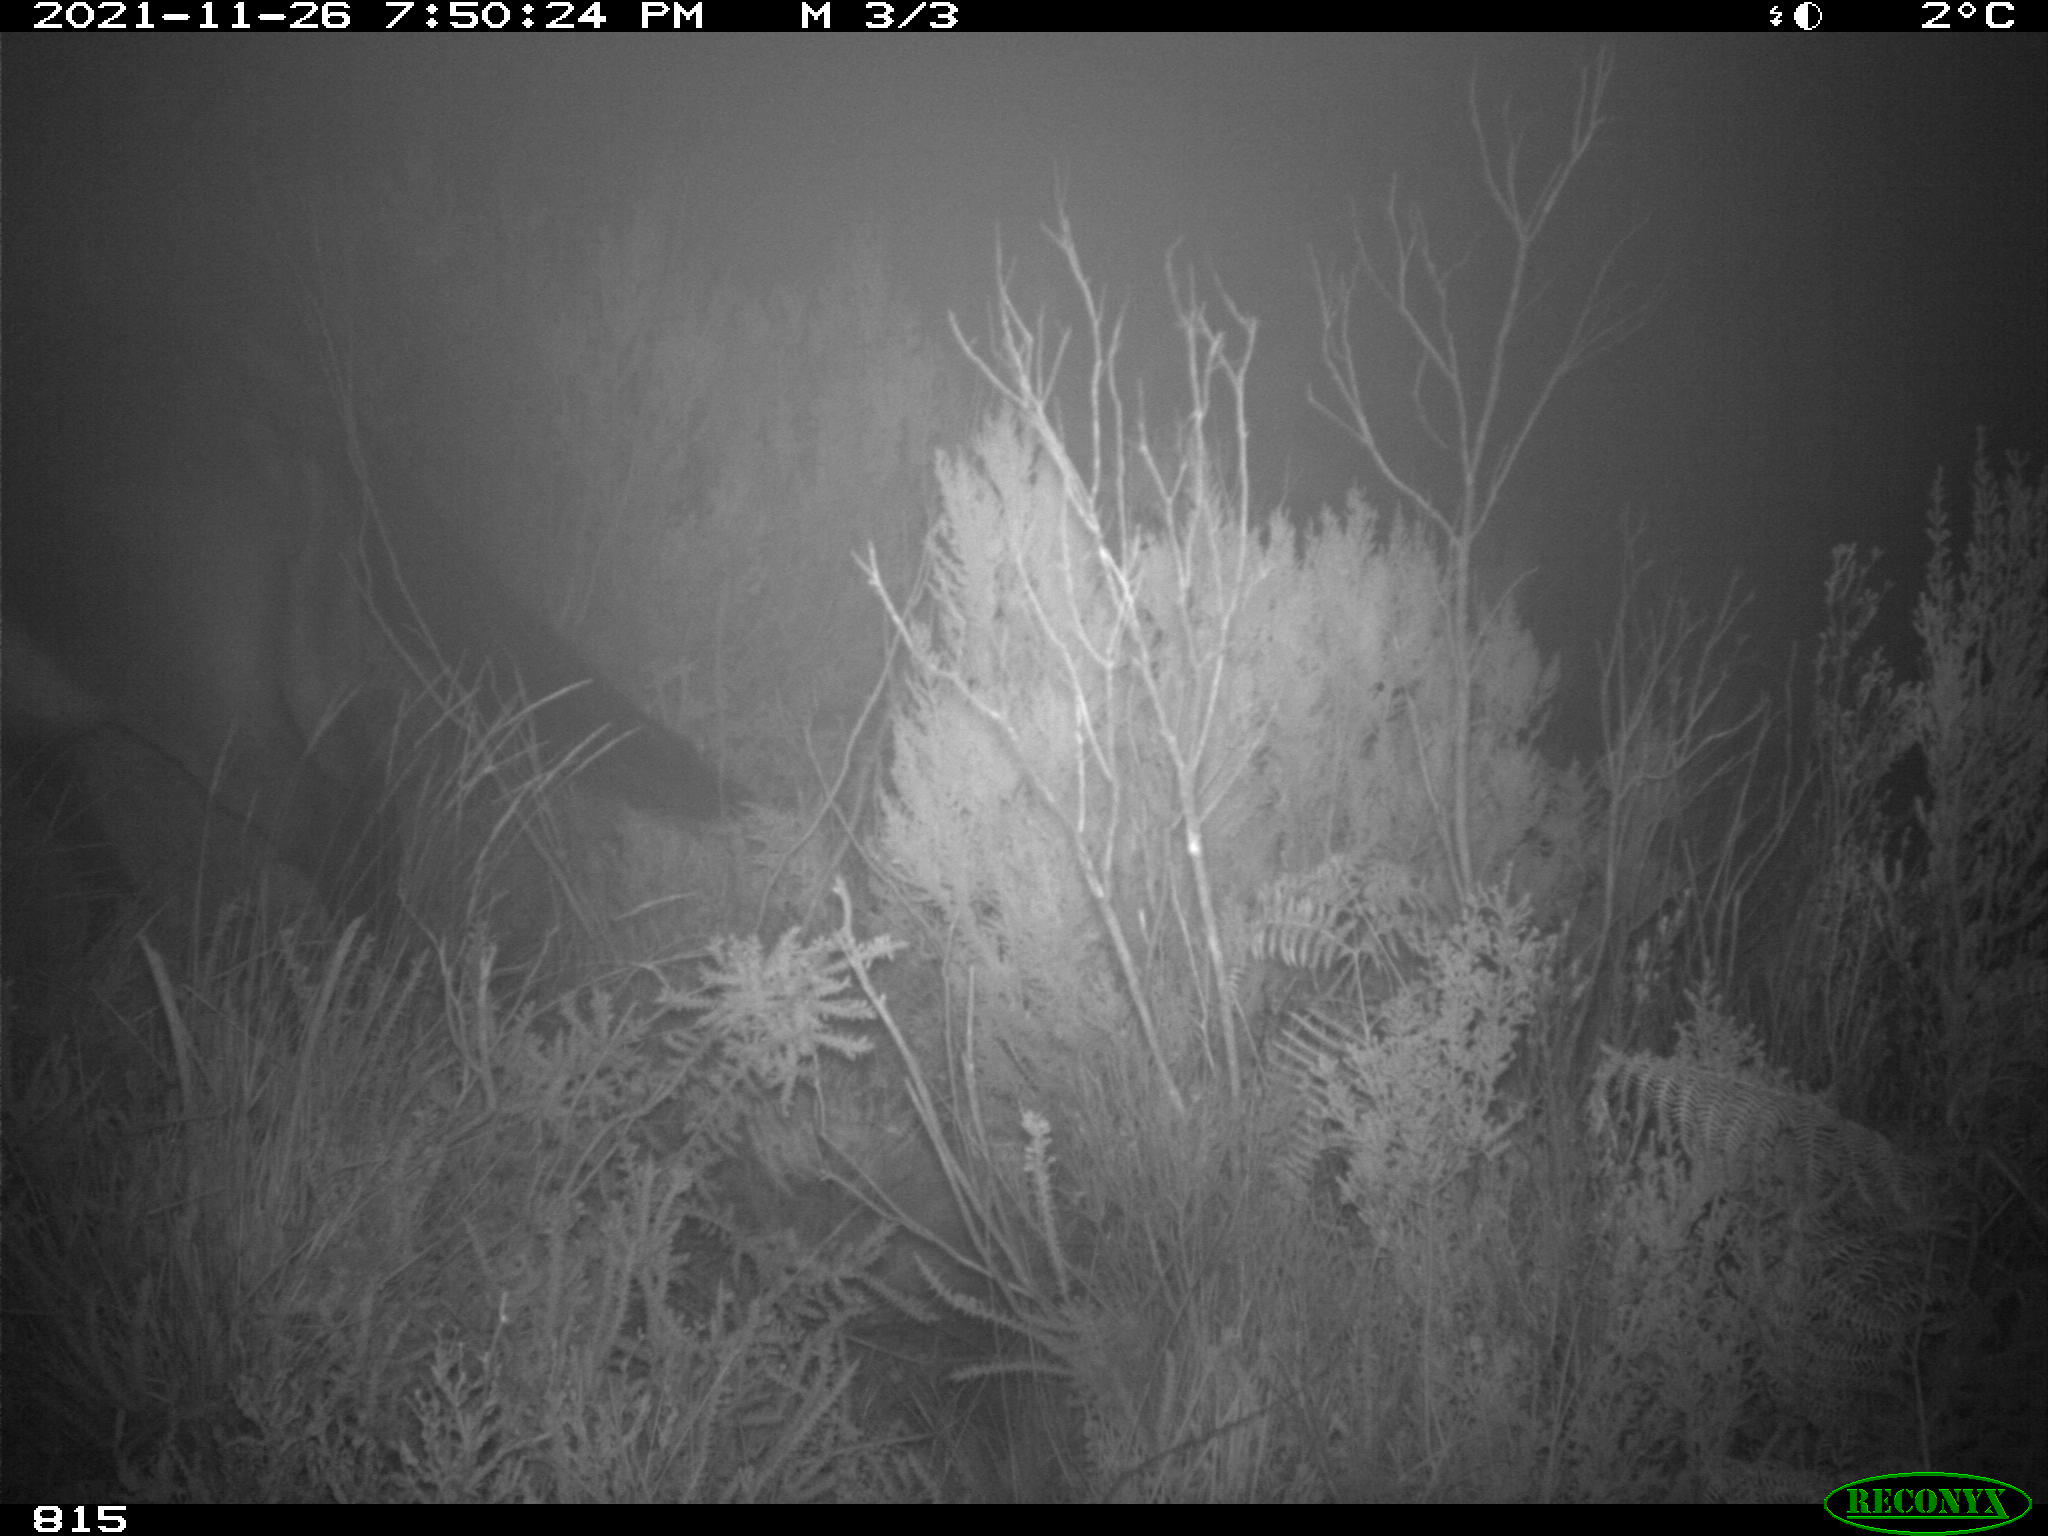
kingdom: Animalia
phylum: Chordata
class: Mammalia
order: Perissodactyla
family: Equidae
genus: Equus
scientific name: Equus caballus
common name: Horse
